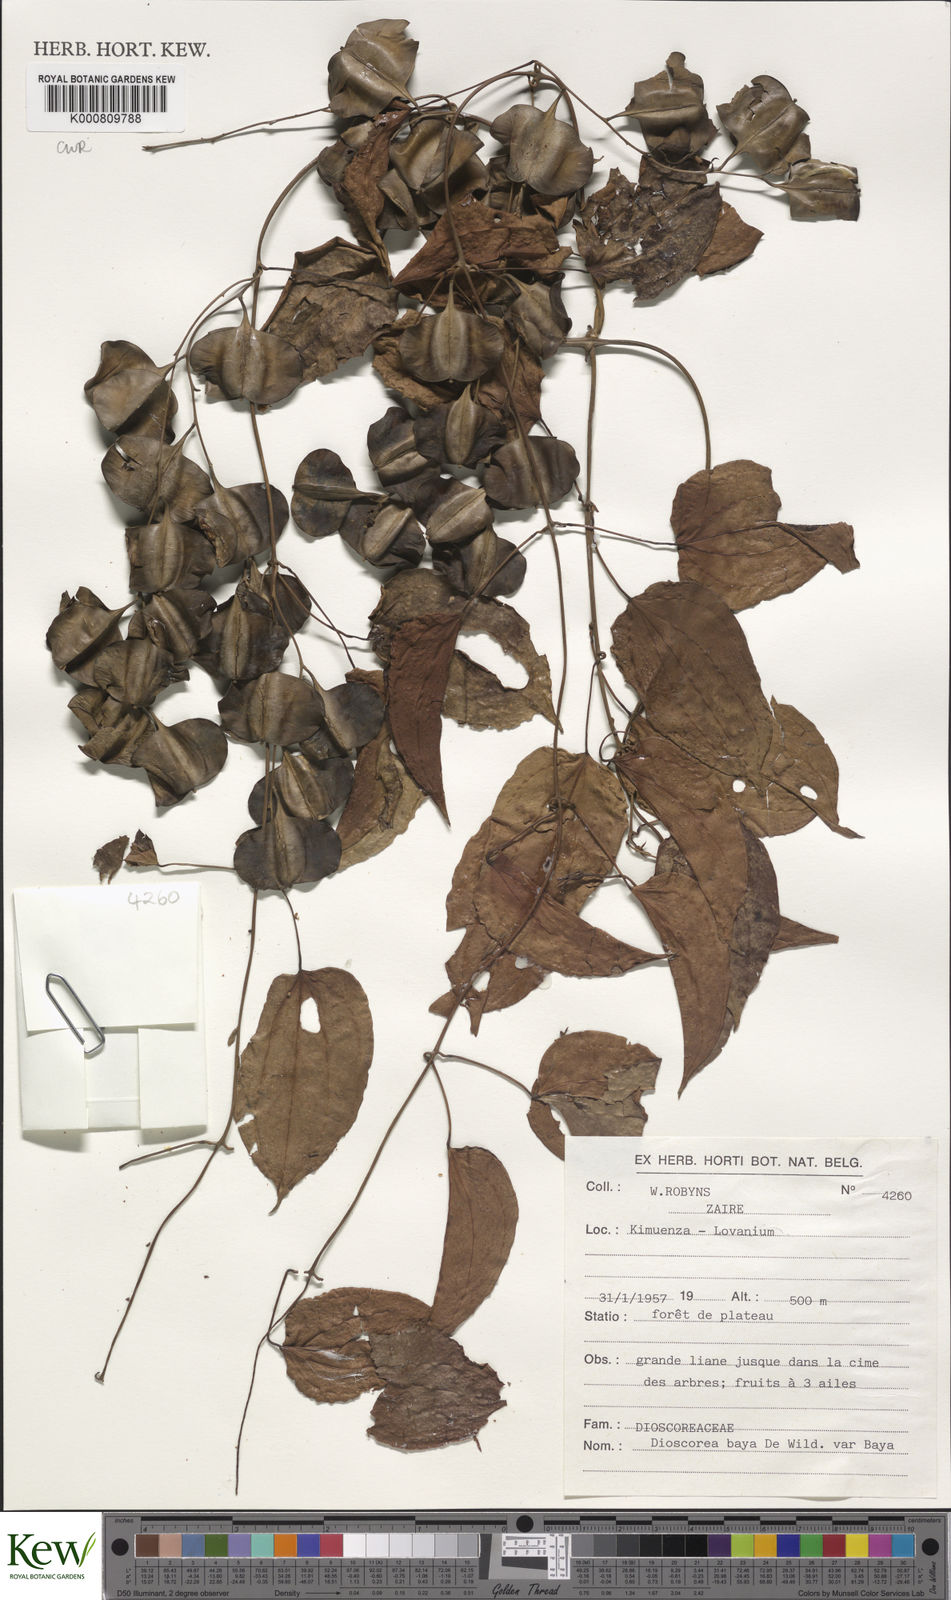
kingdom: Plantae
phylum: Tracheophyta
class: Liliopsida
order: Dioscoreales
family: Dioscoreaceae
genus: Dioscorea
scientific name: Dioscorea baya
